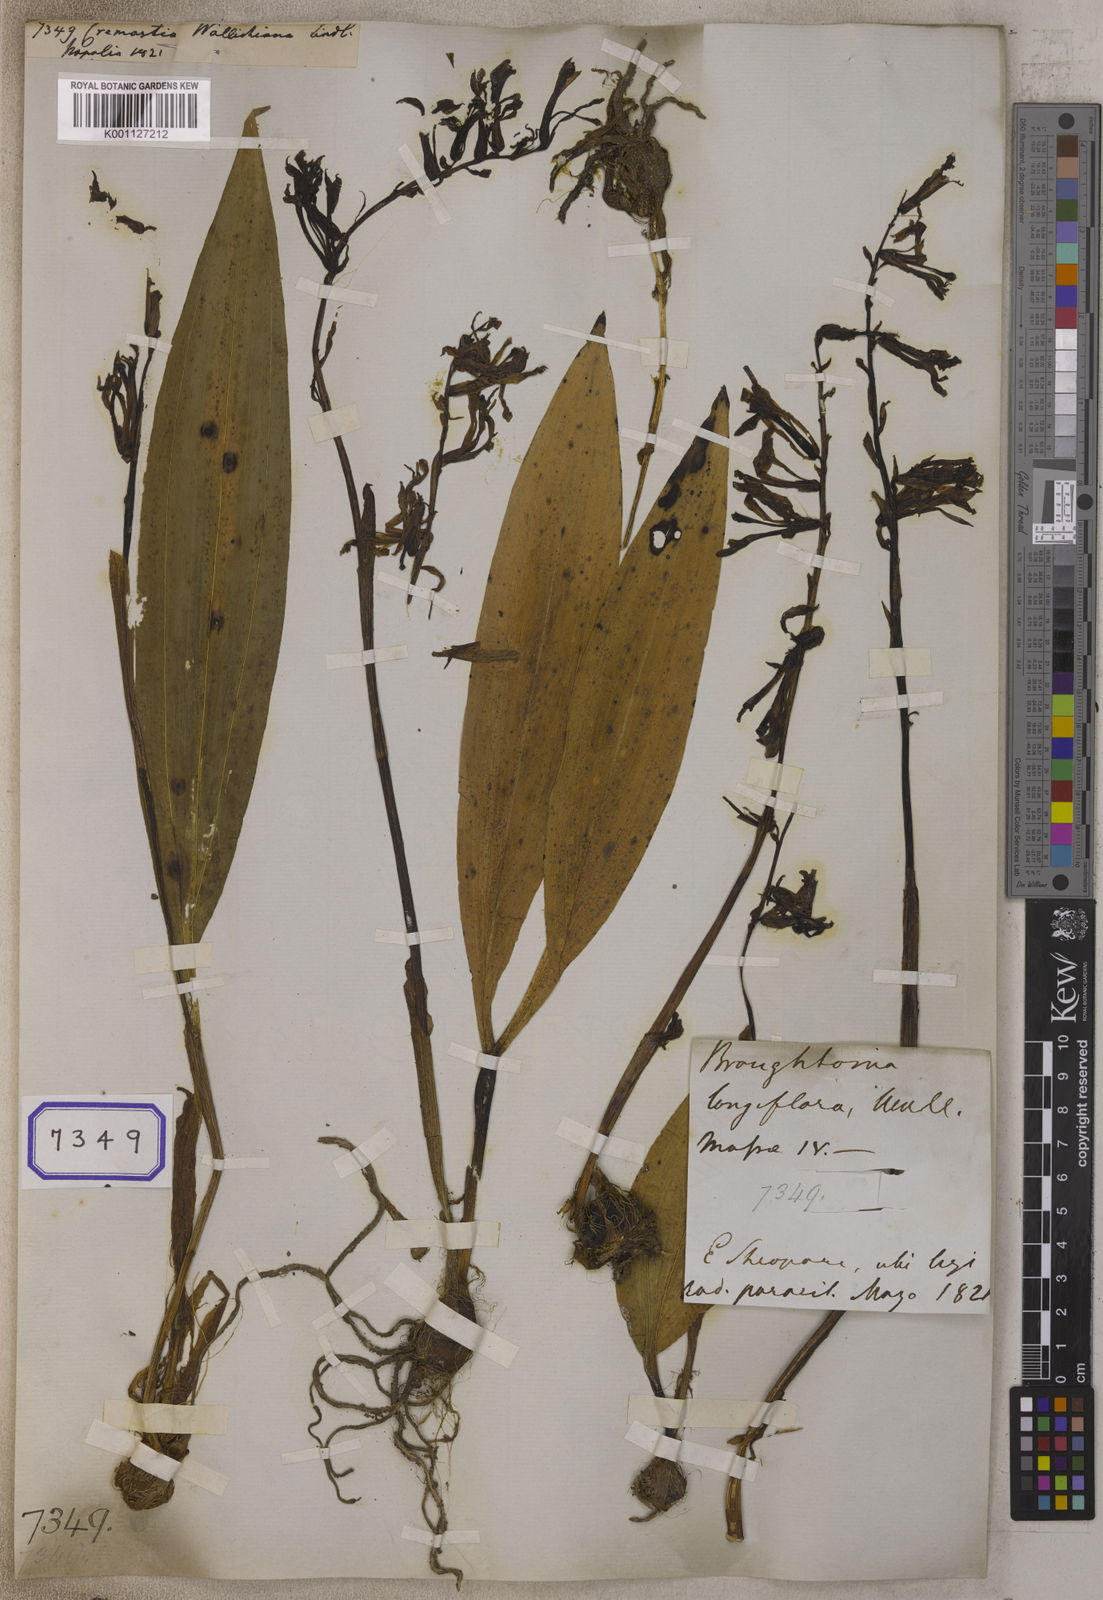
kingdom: Plantae
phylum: Tracheophyta
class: Liliopsida
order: Asparagales
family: Orchidaceae
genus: Cremastra
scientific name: Cremastra appendiculata
